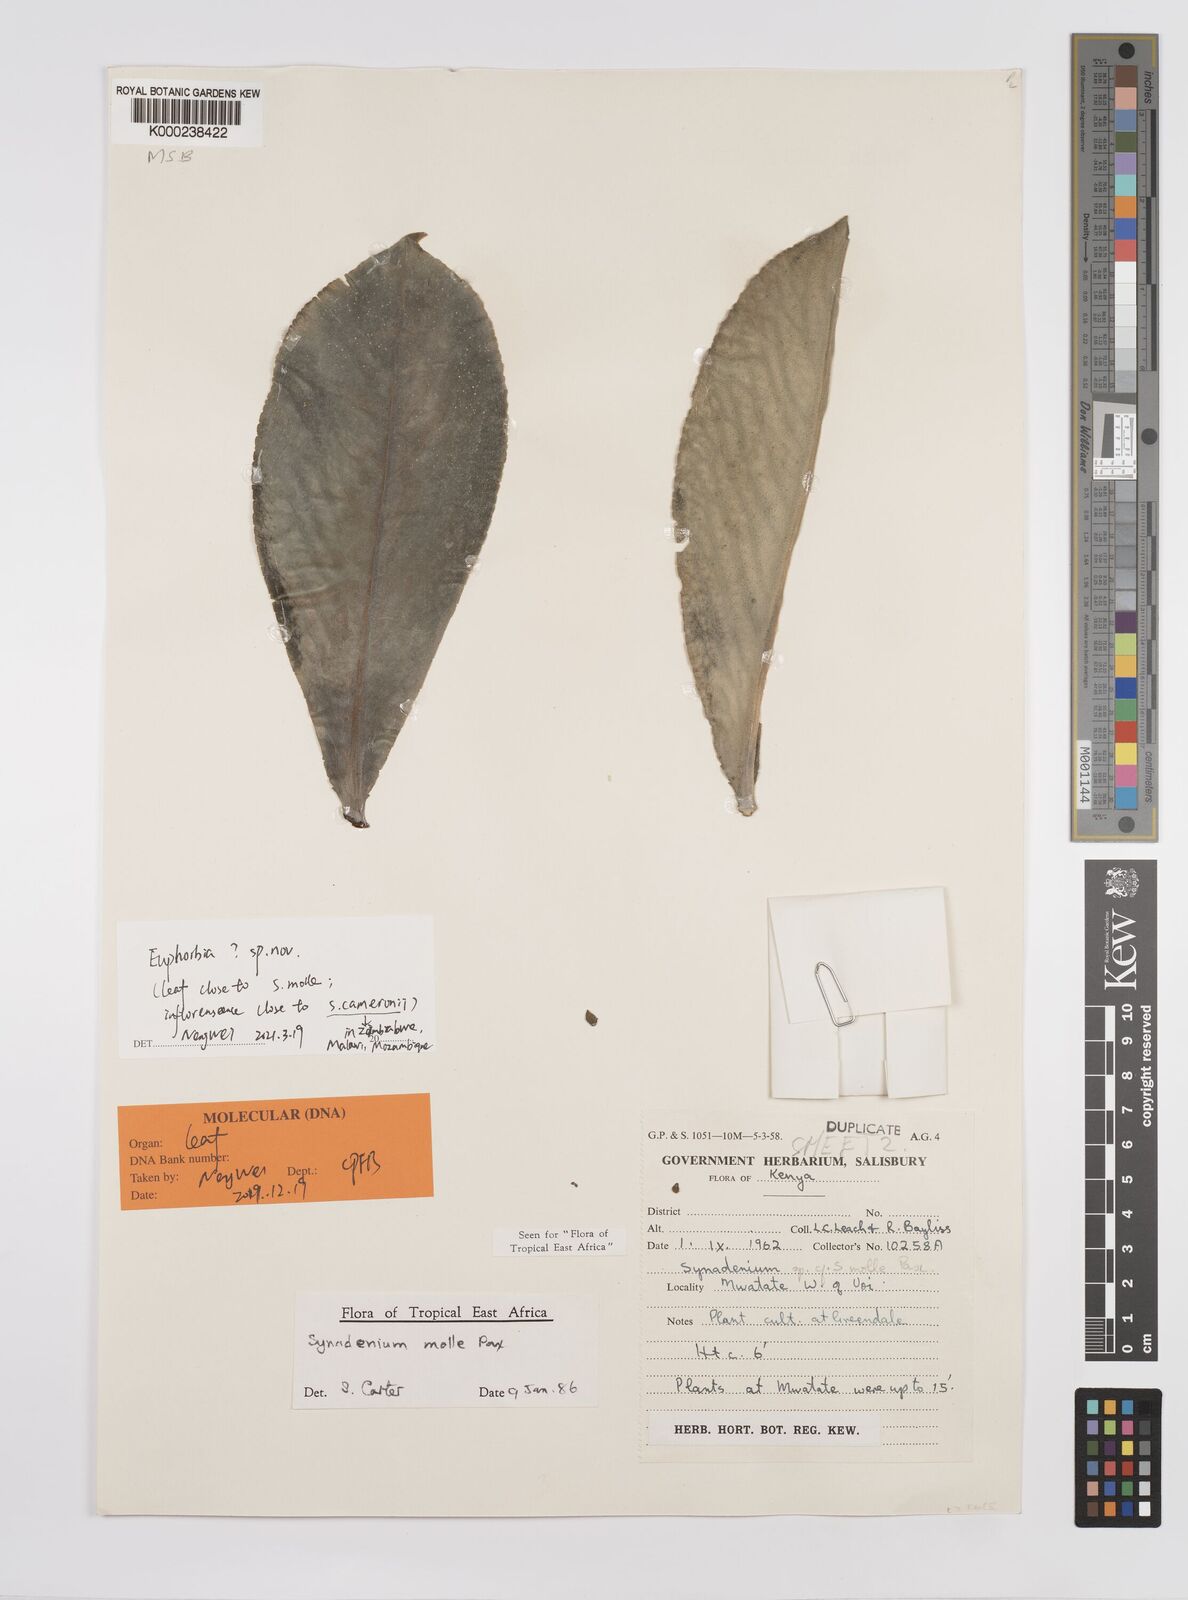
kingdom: Plantae
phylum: Tracheophyta
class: Magnoliopsida
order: Malpighiales
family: Euphorbiaceae
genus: Euphorbia
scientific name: Euphorbia pseudomollis
